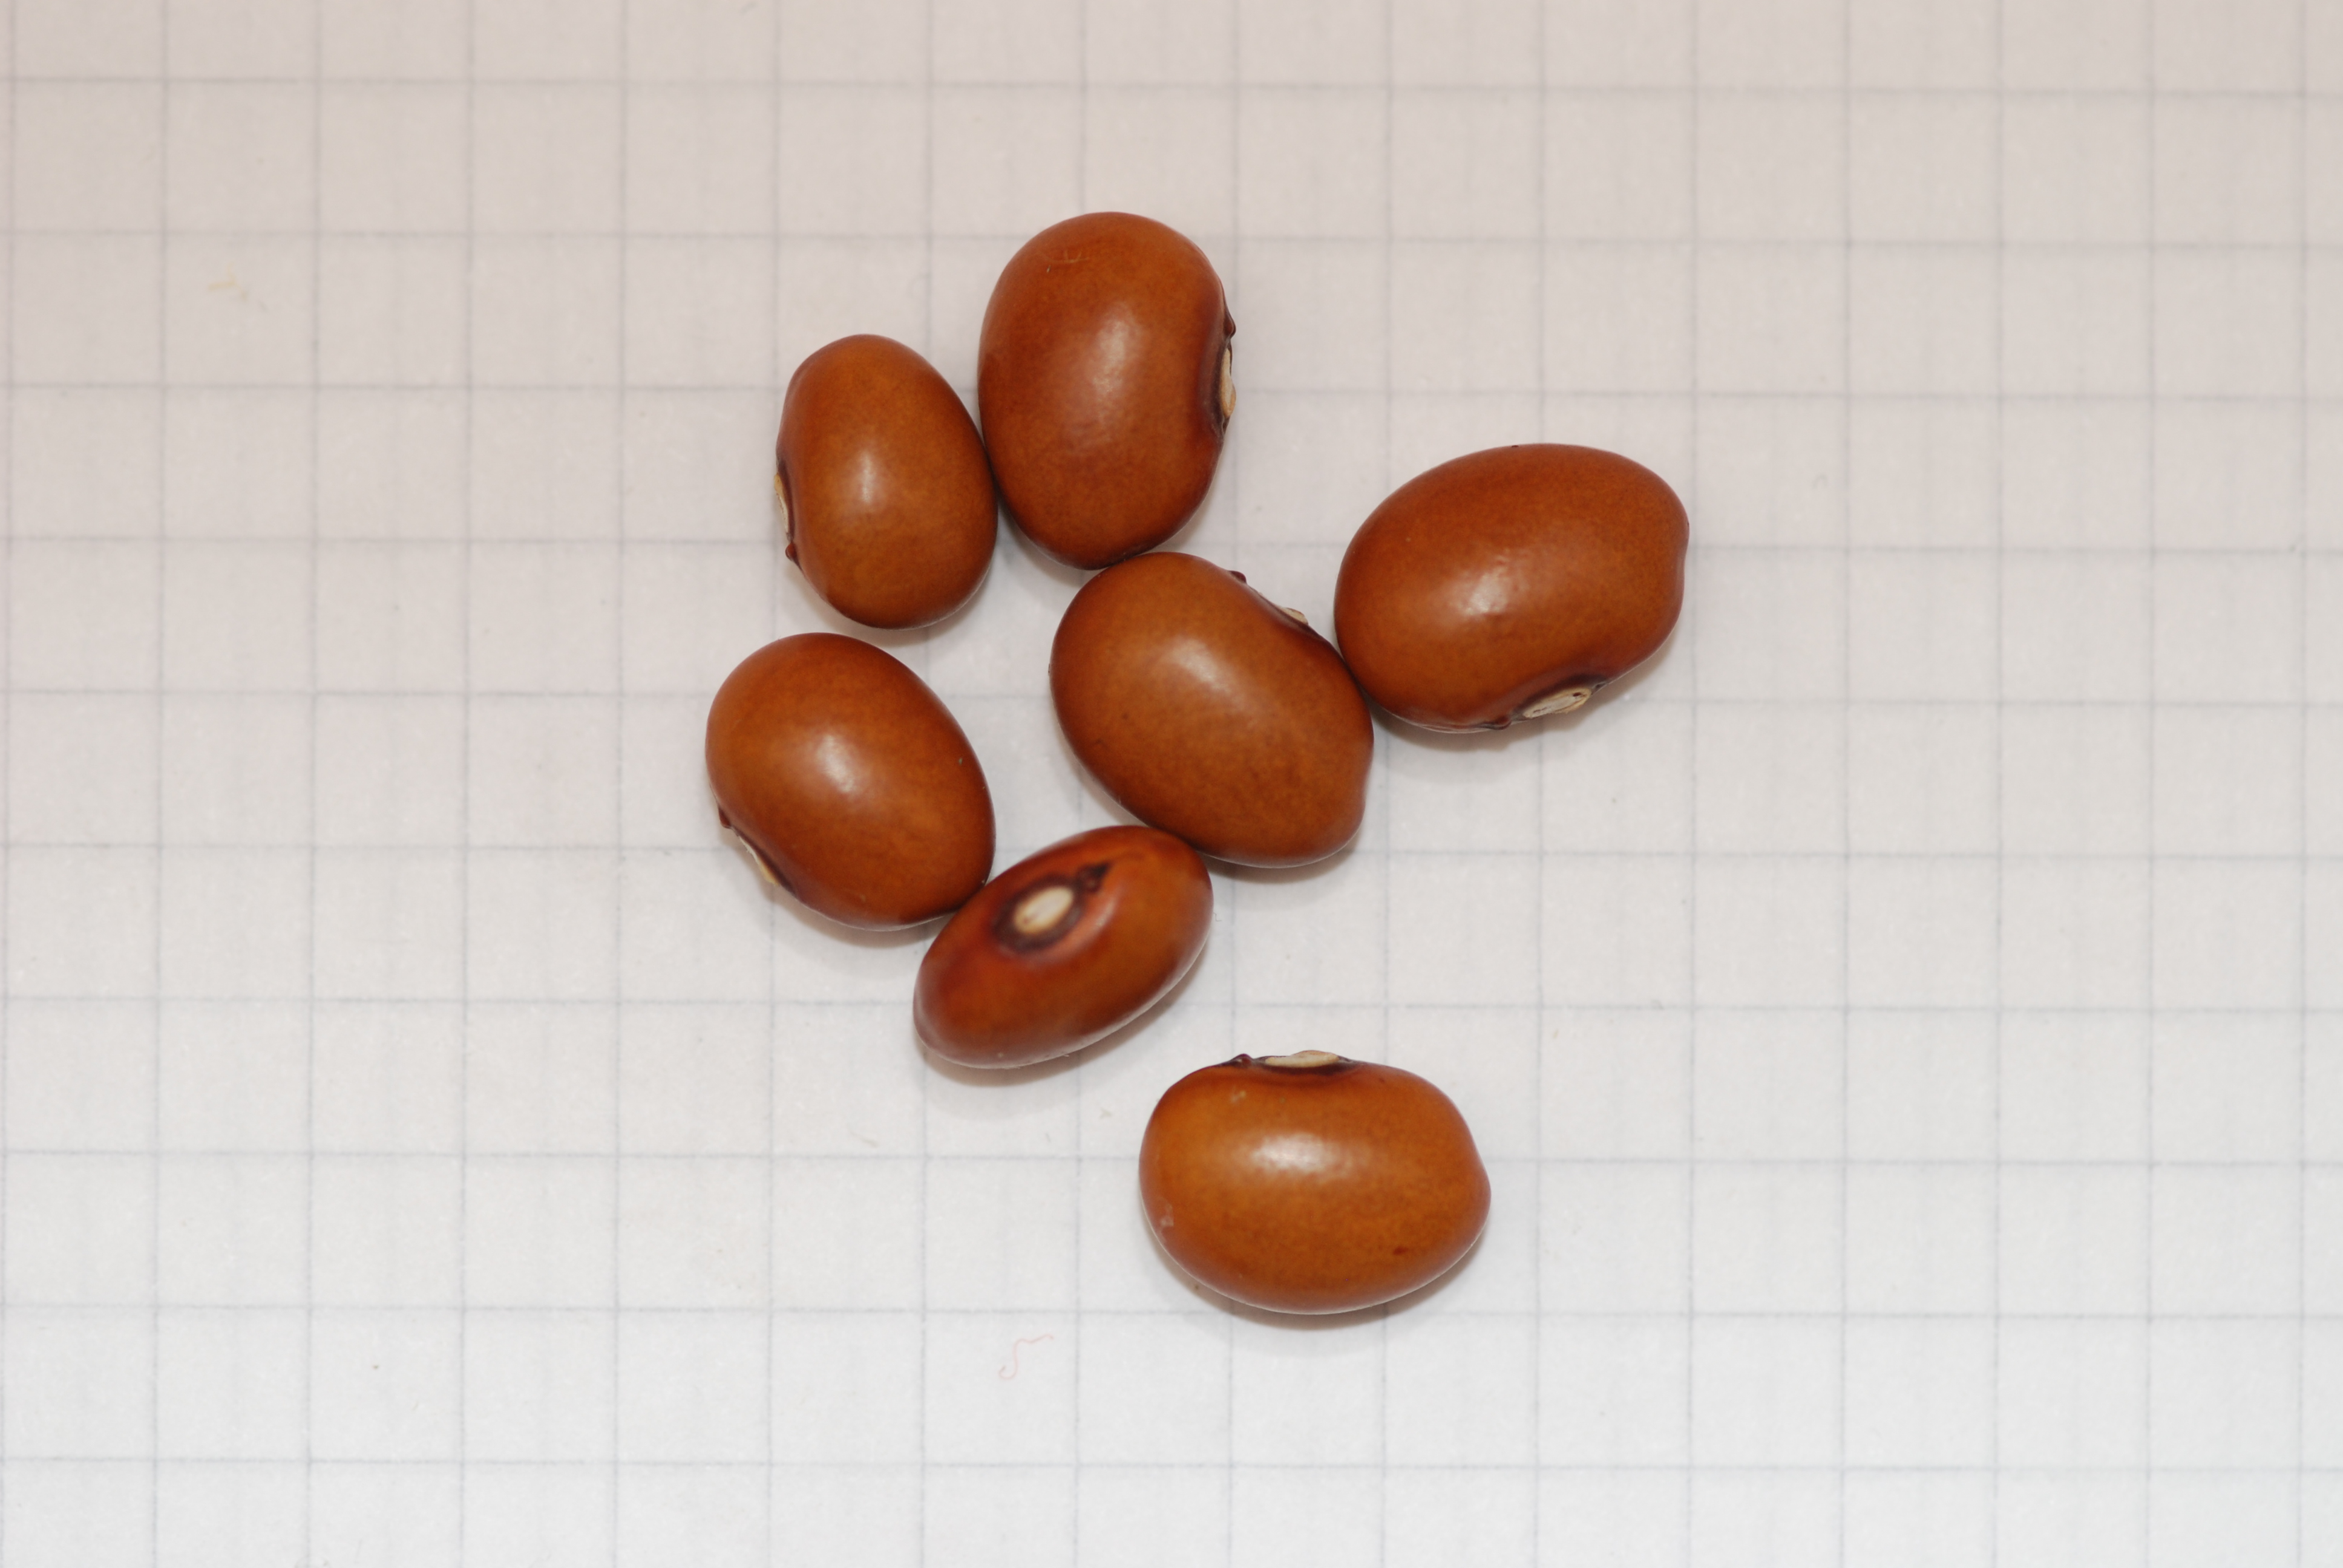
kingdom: Plantae
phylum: Tracheophyta
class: Magnoliopsida
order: Fabales
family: Fabaceae
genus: Phaseolus
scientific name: Phaseolus vulgaris
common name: Bean
